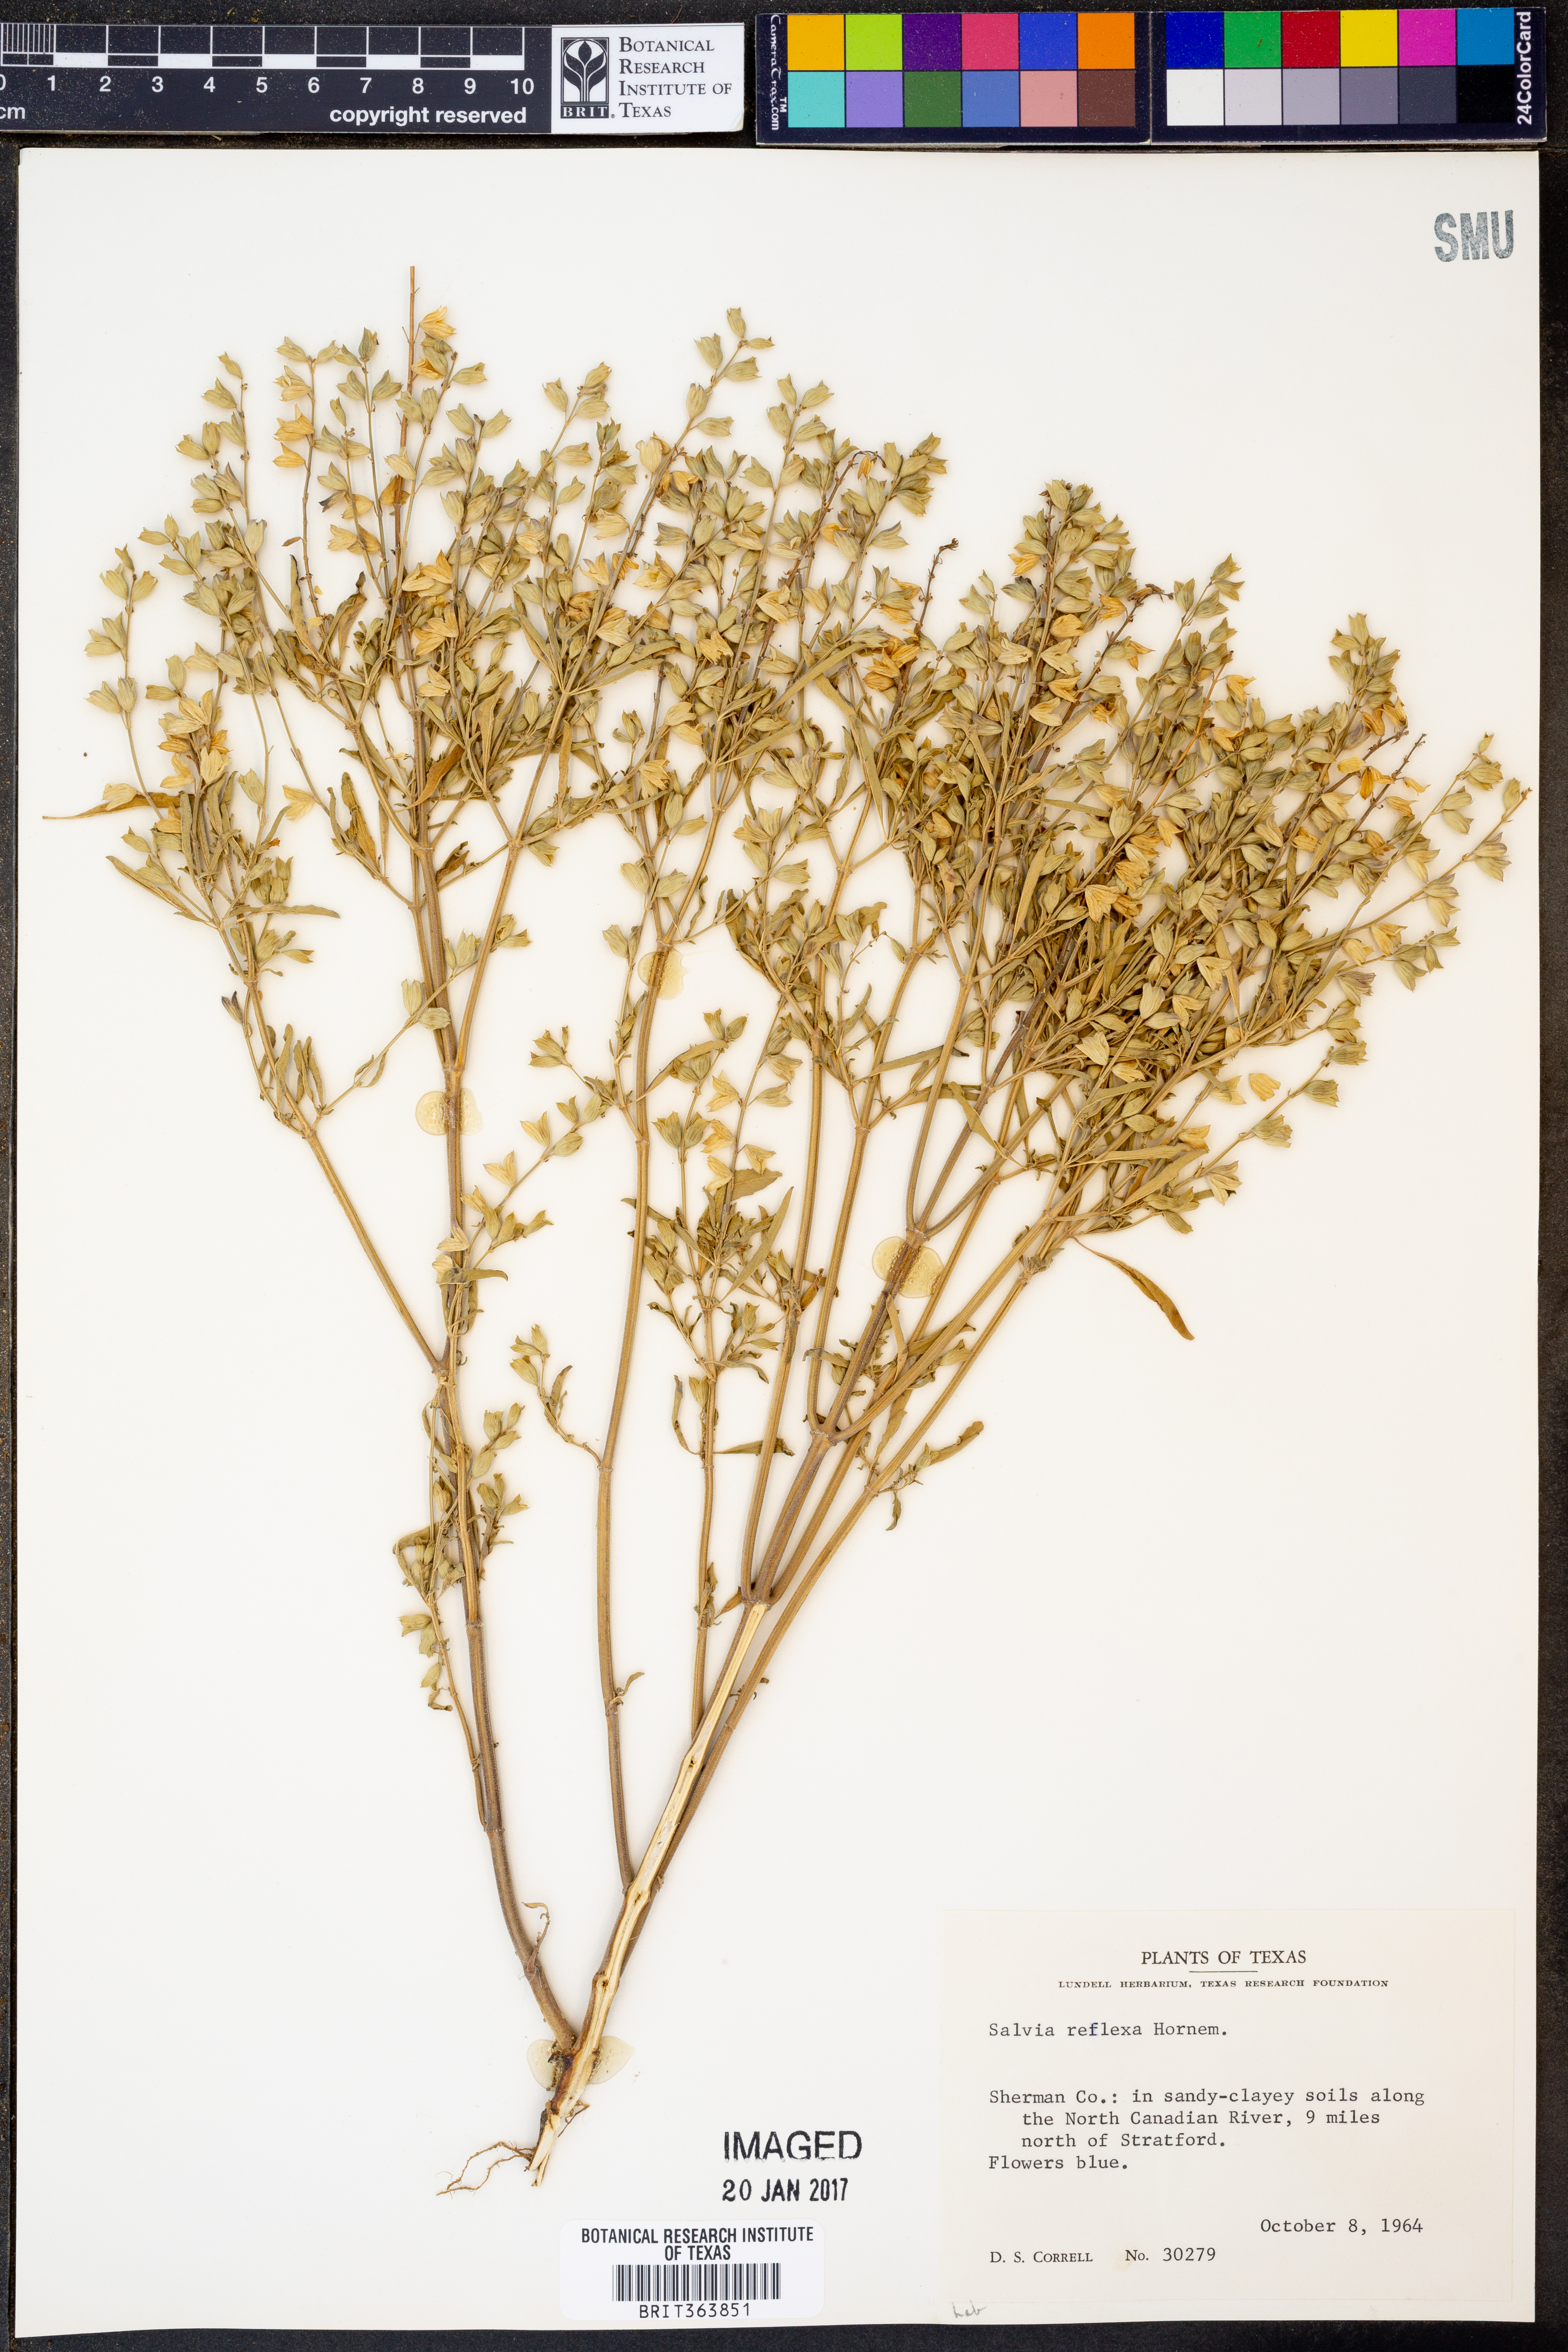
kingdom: Plantae
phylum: Tracheophyta
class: Magnoliopsida
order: Lamiales
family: Lamiaceae
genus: Salvia
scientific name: Salvia reflexa
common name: Mintweed
